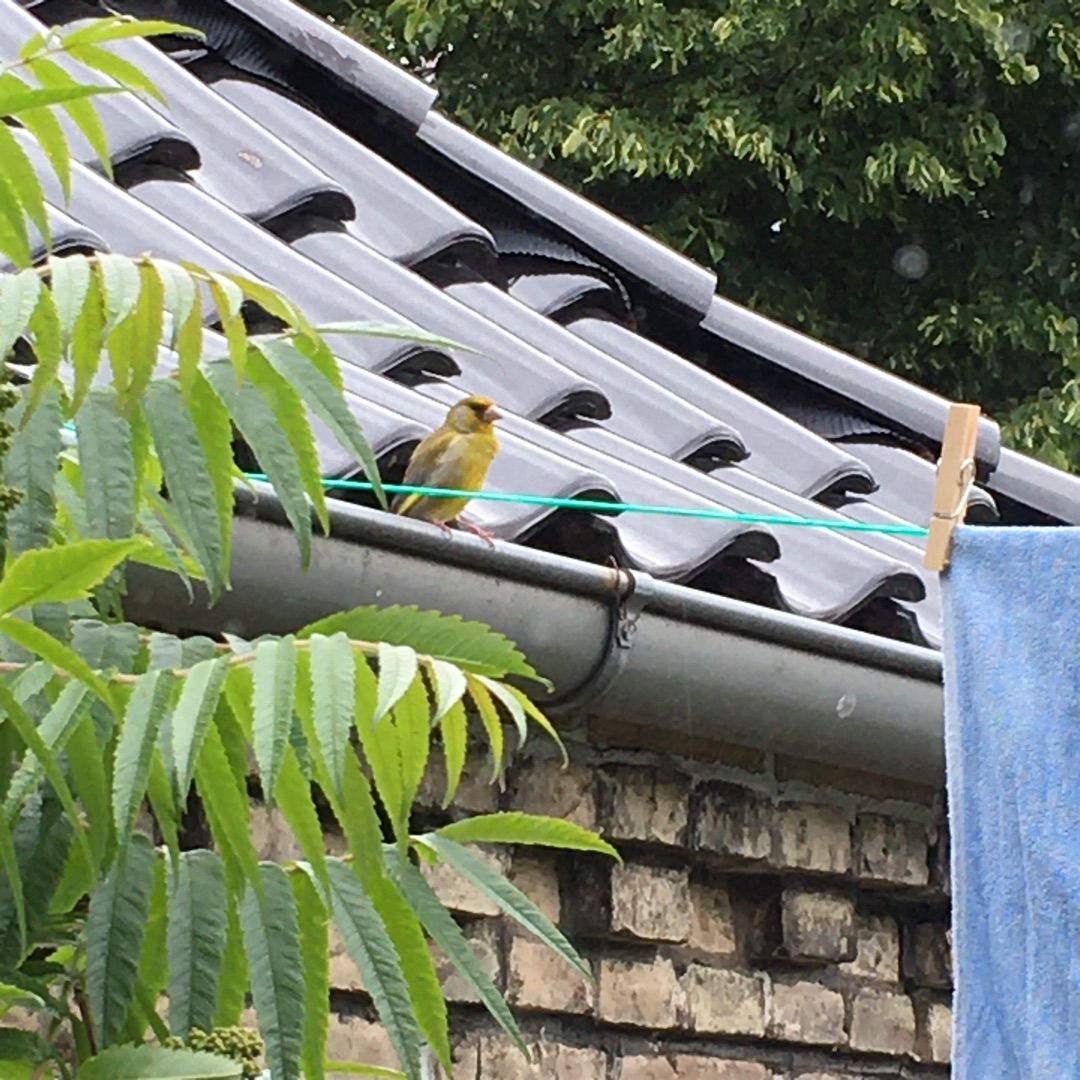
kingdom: Plantae
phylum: Tracheophyta
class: Liliopsida
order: Poales
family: Poaceae
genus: Chloris
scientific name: Chloris chloris
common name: Grønirisk
